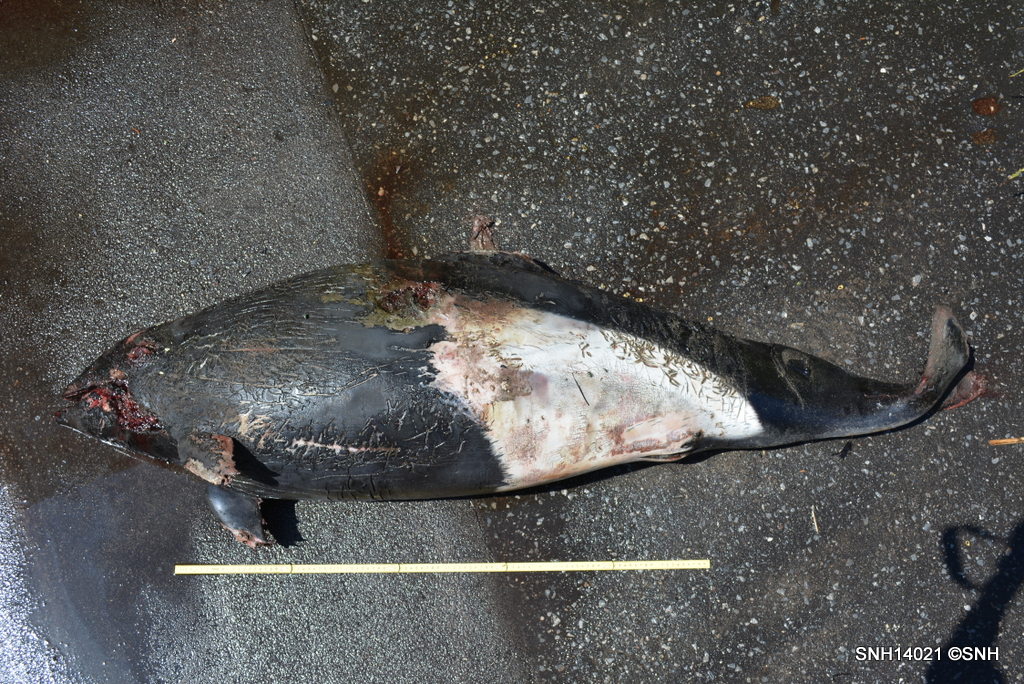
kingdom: Animalia
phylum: Chordata
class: Mammalia
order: Cetacea
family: Phocoenidae
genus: Phocoenoides
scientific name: Phocoenoides dalli
